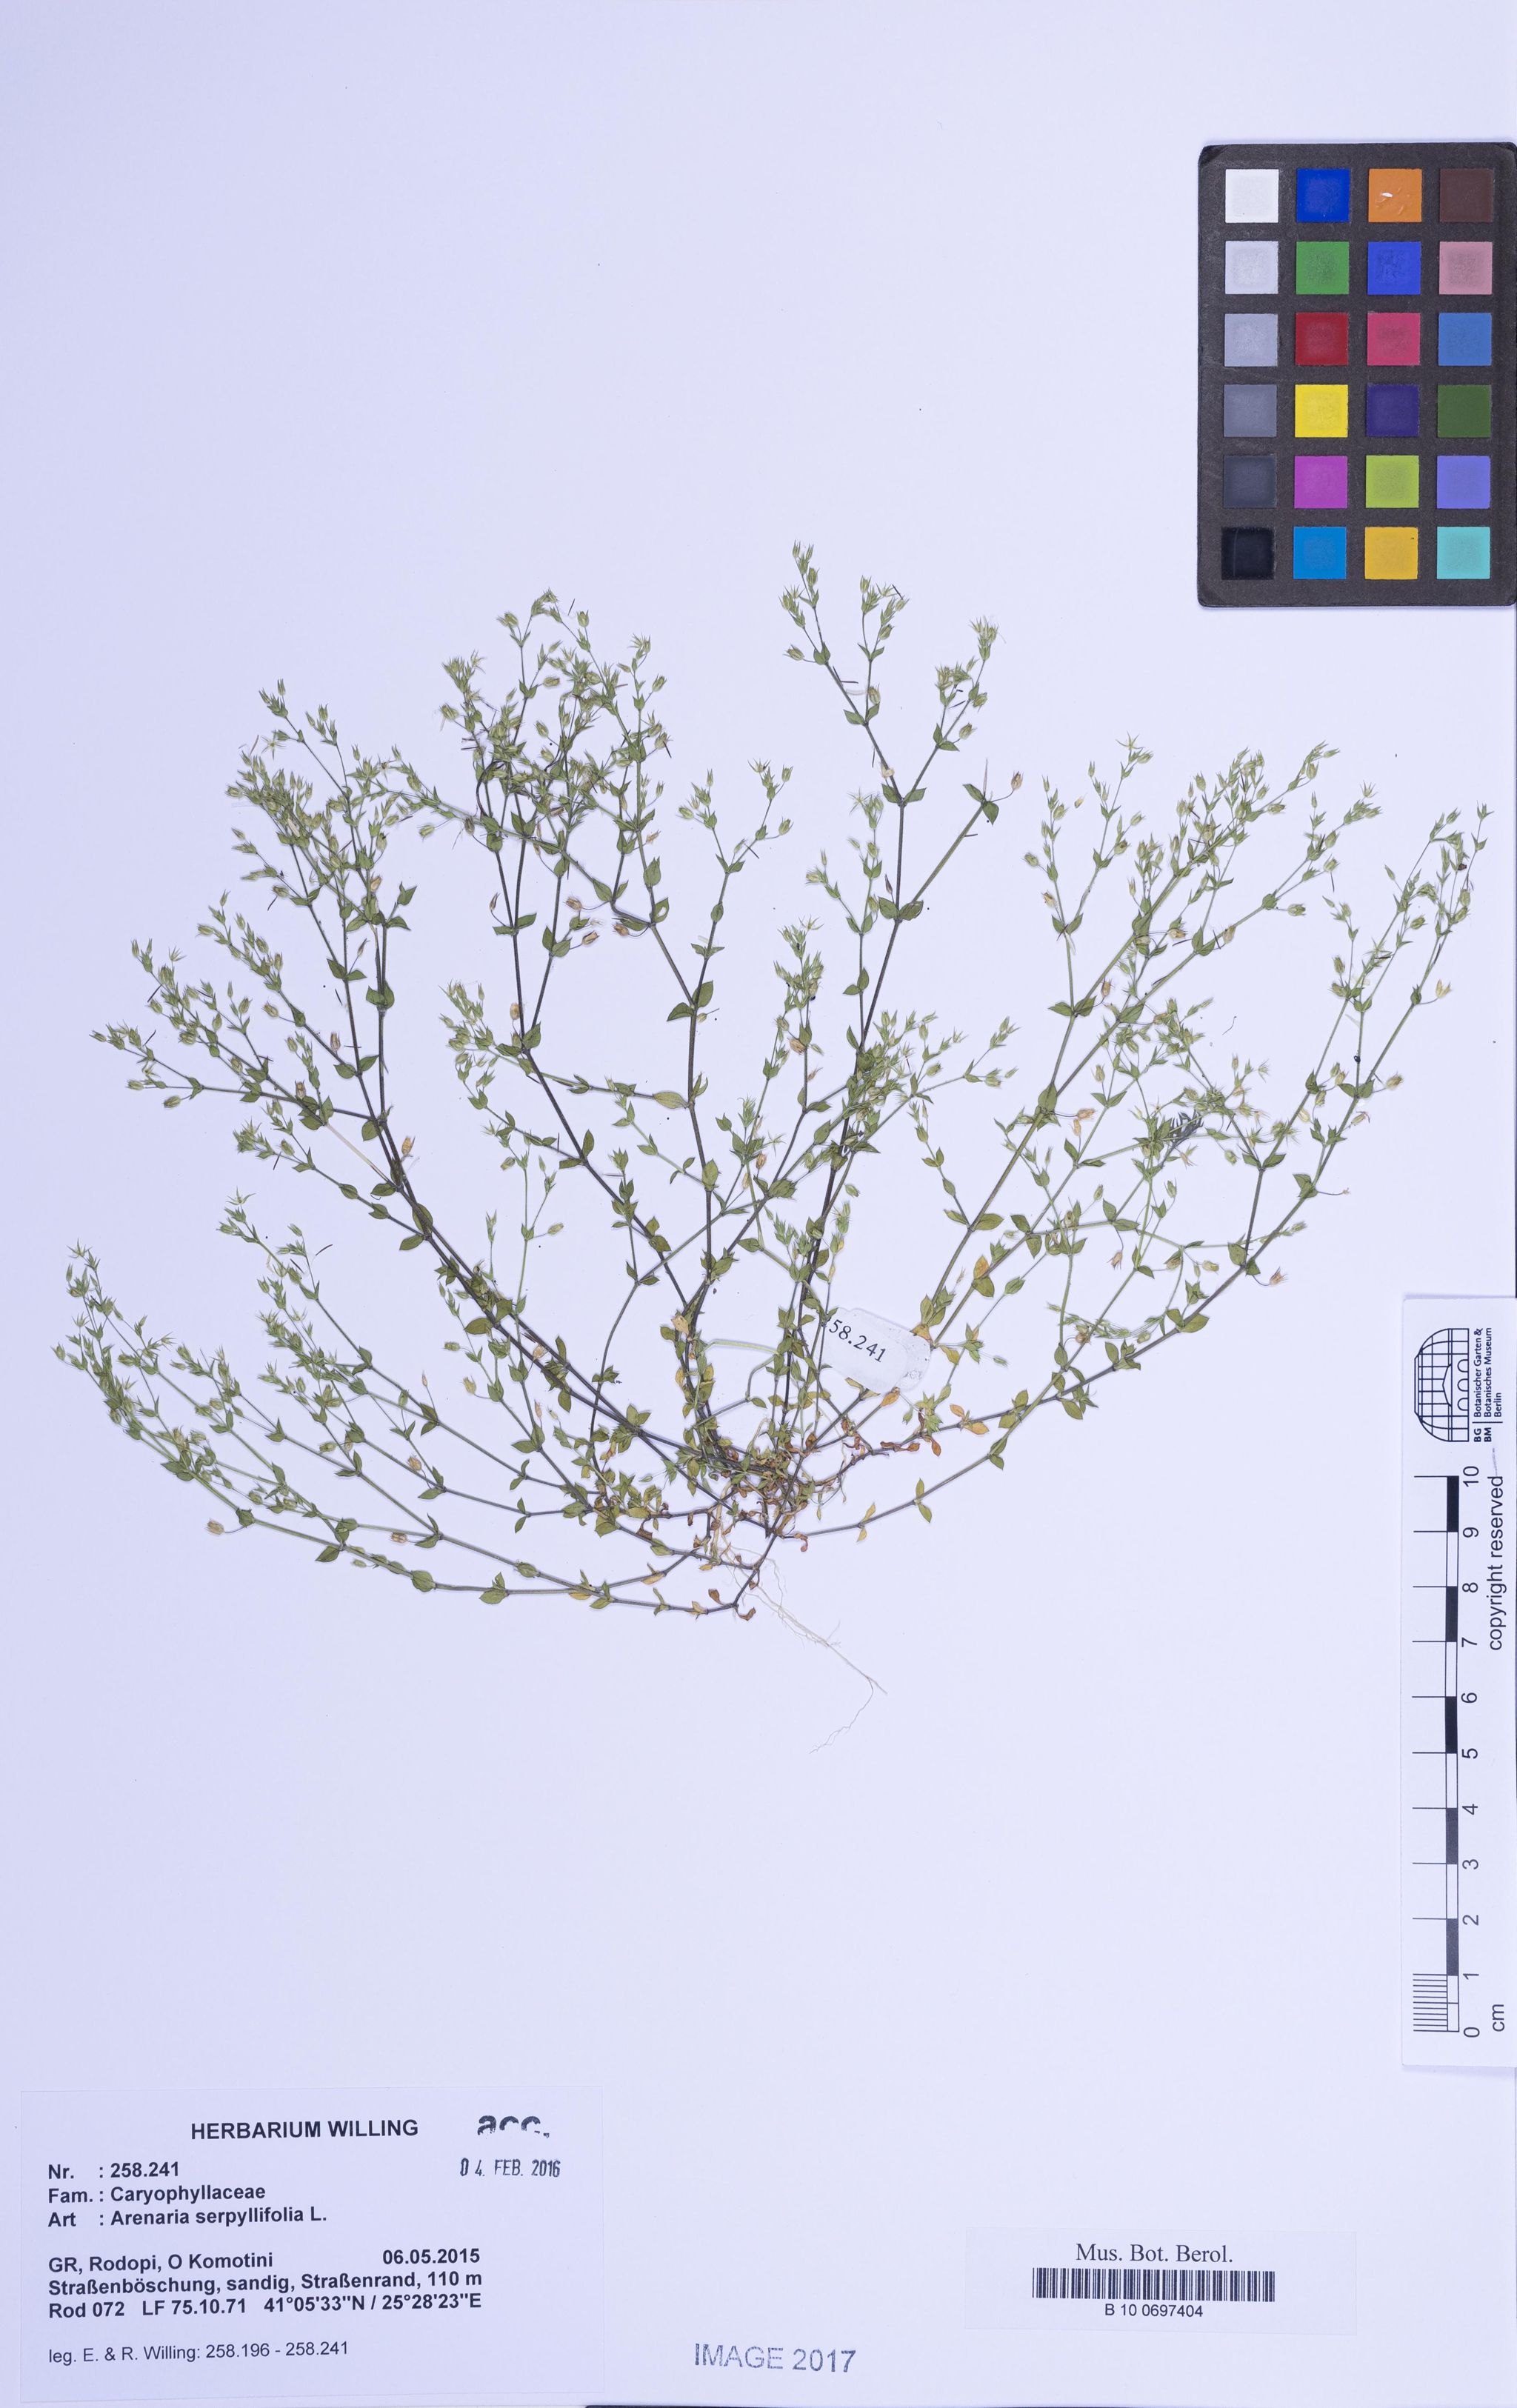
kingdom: Plantae
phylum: Tracheophyta
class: Magnoliopsida
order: Caryophyllales
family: Caryophyllaceae
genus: Arenaria
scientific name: Arenaria serpyllifolia
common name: Thyme-leaved sandwort
